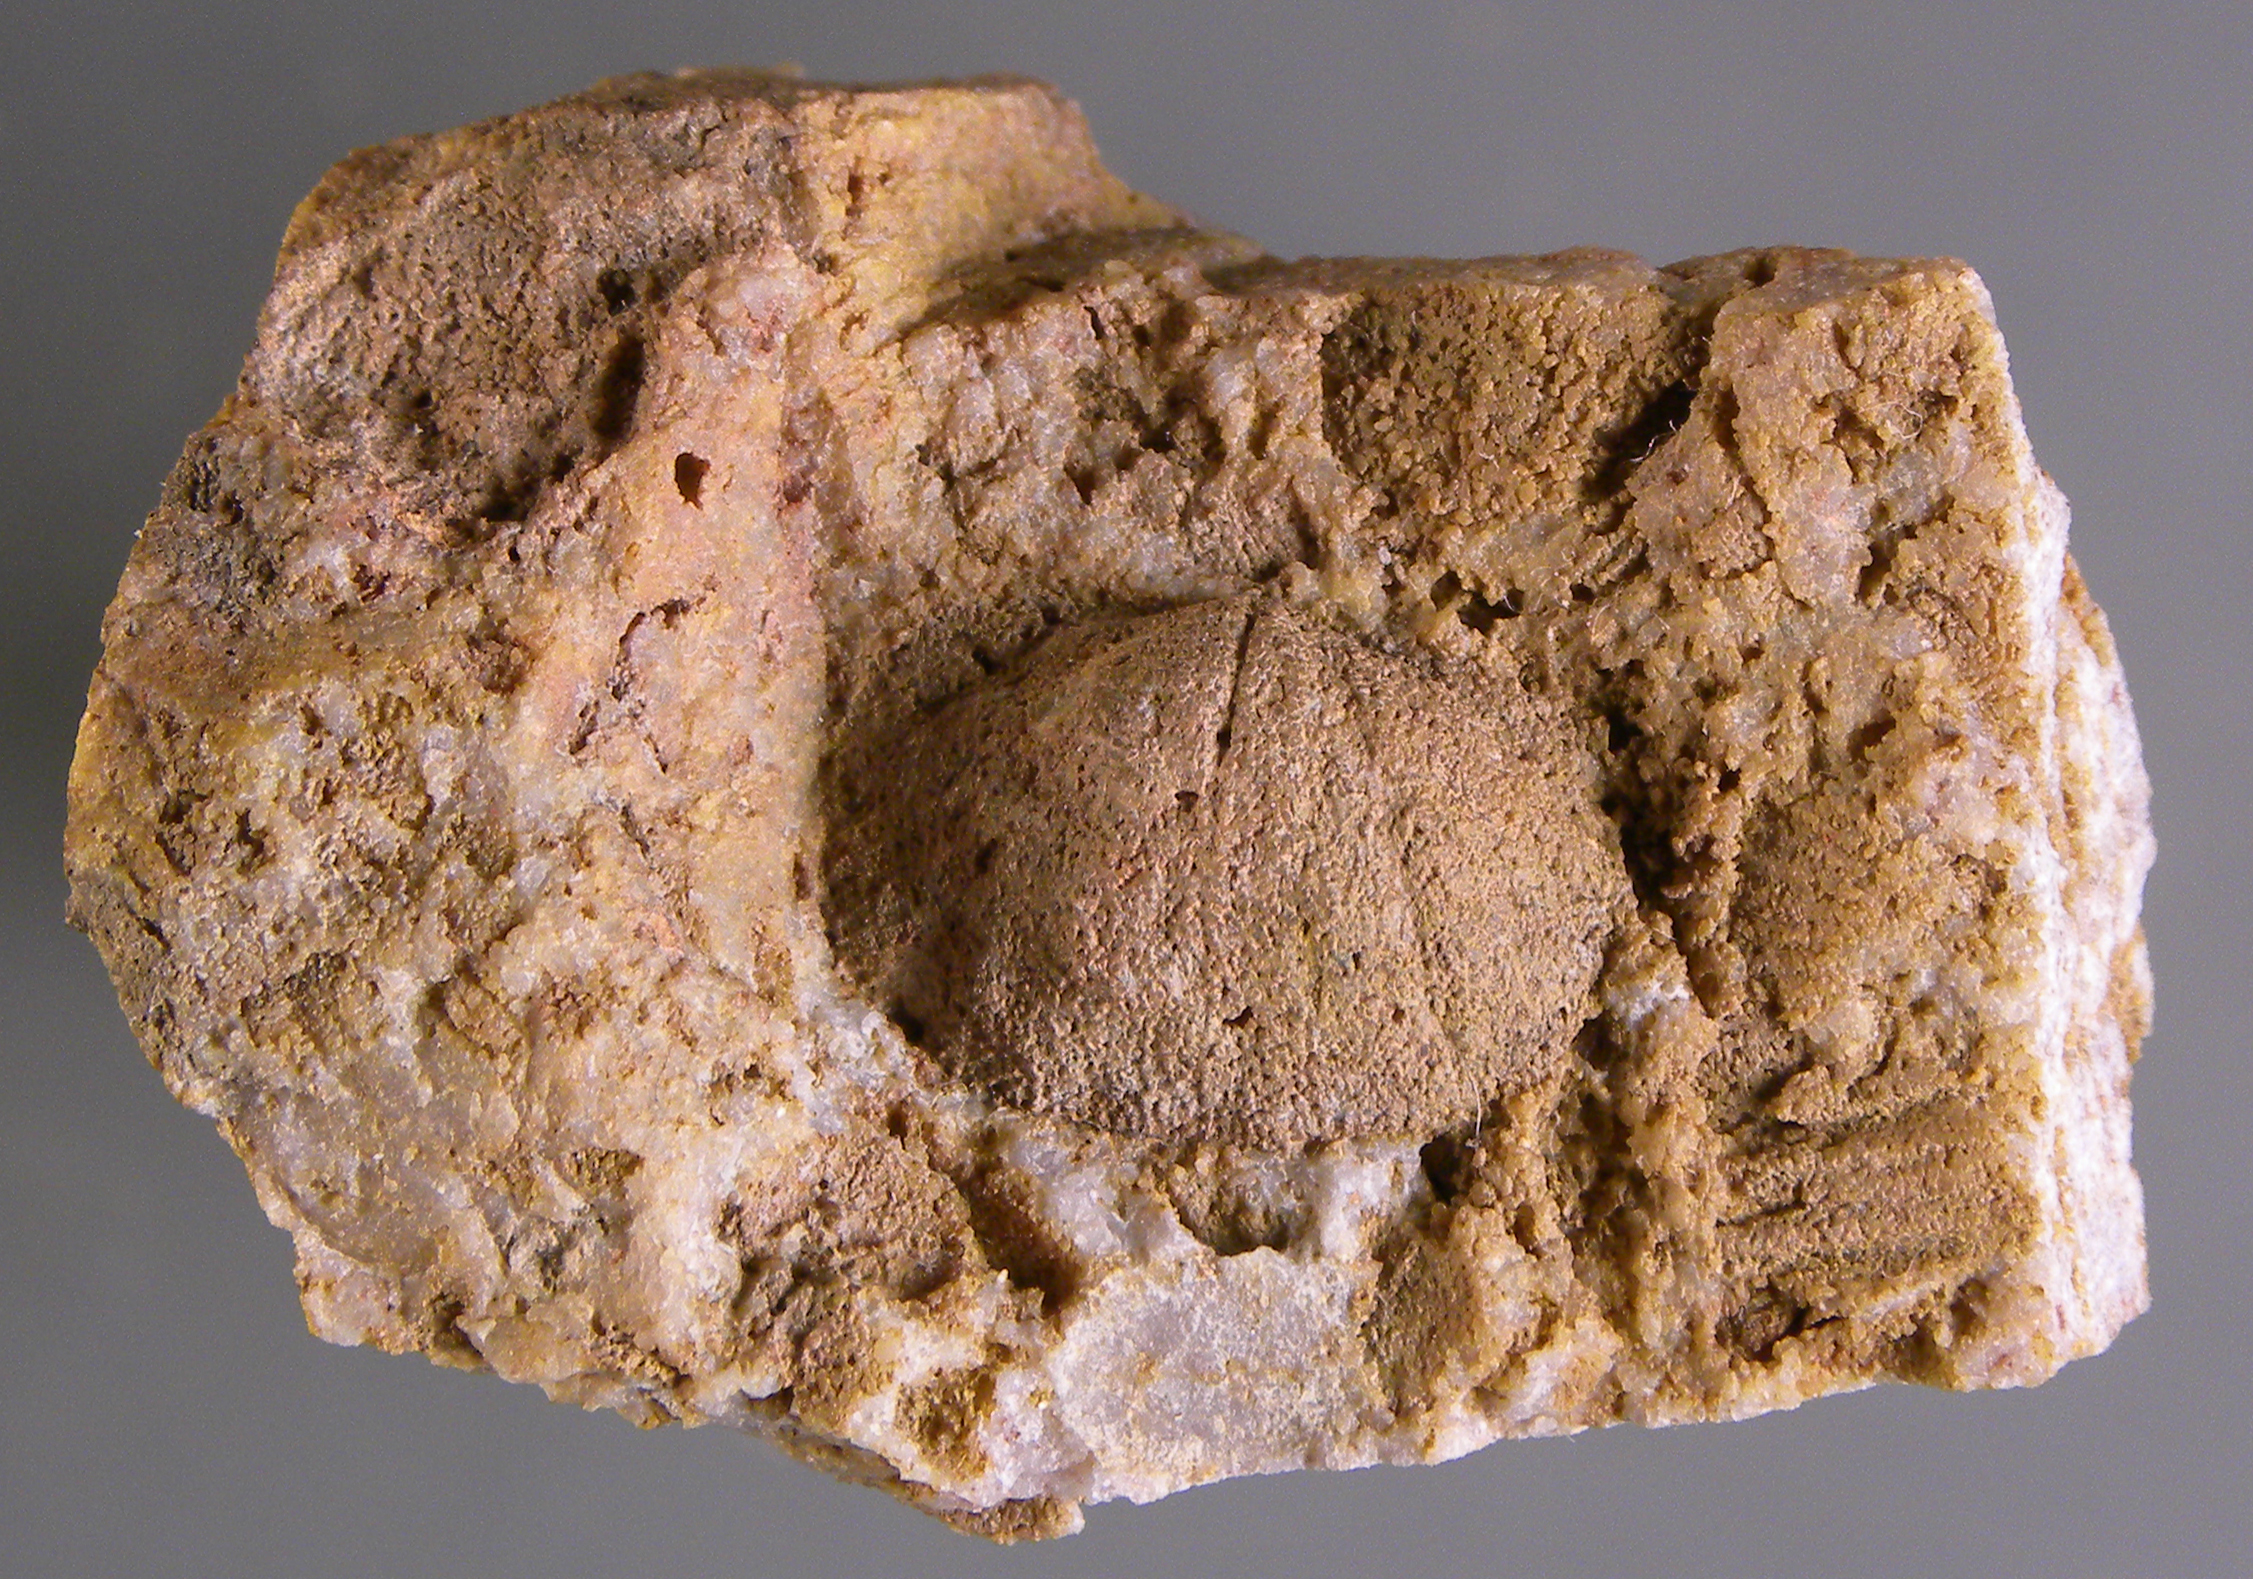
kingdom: Animalia
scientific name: Animalia
